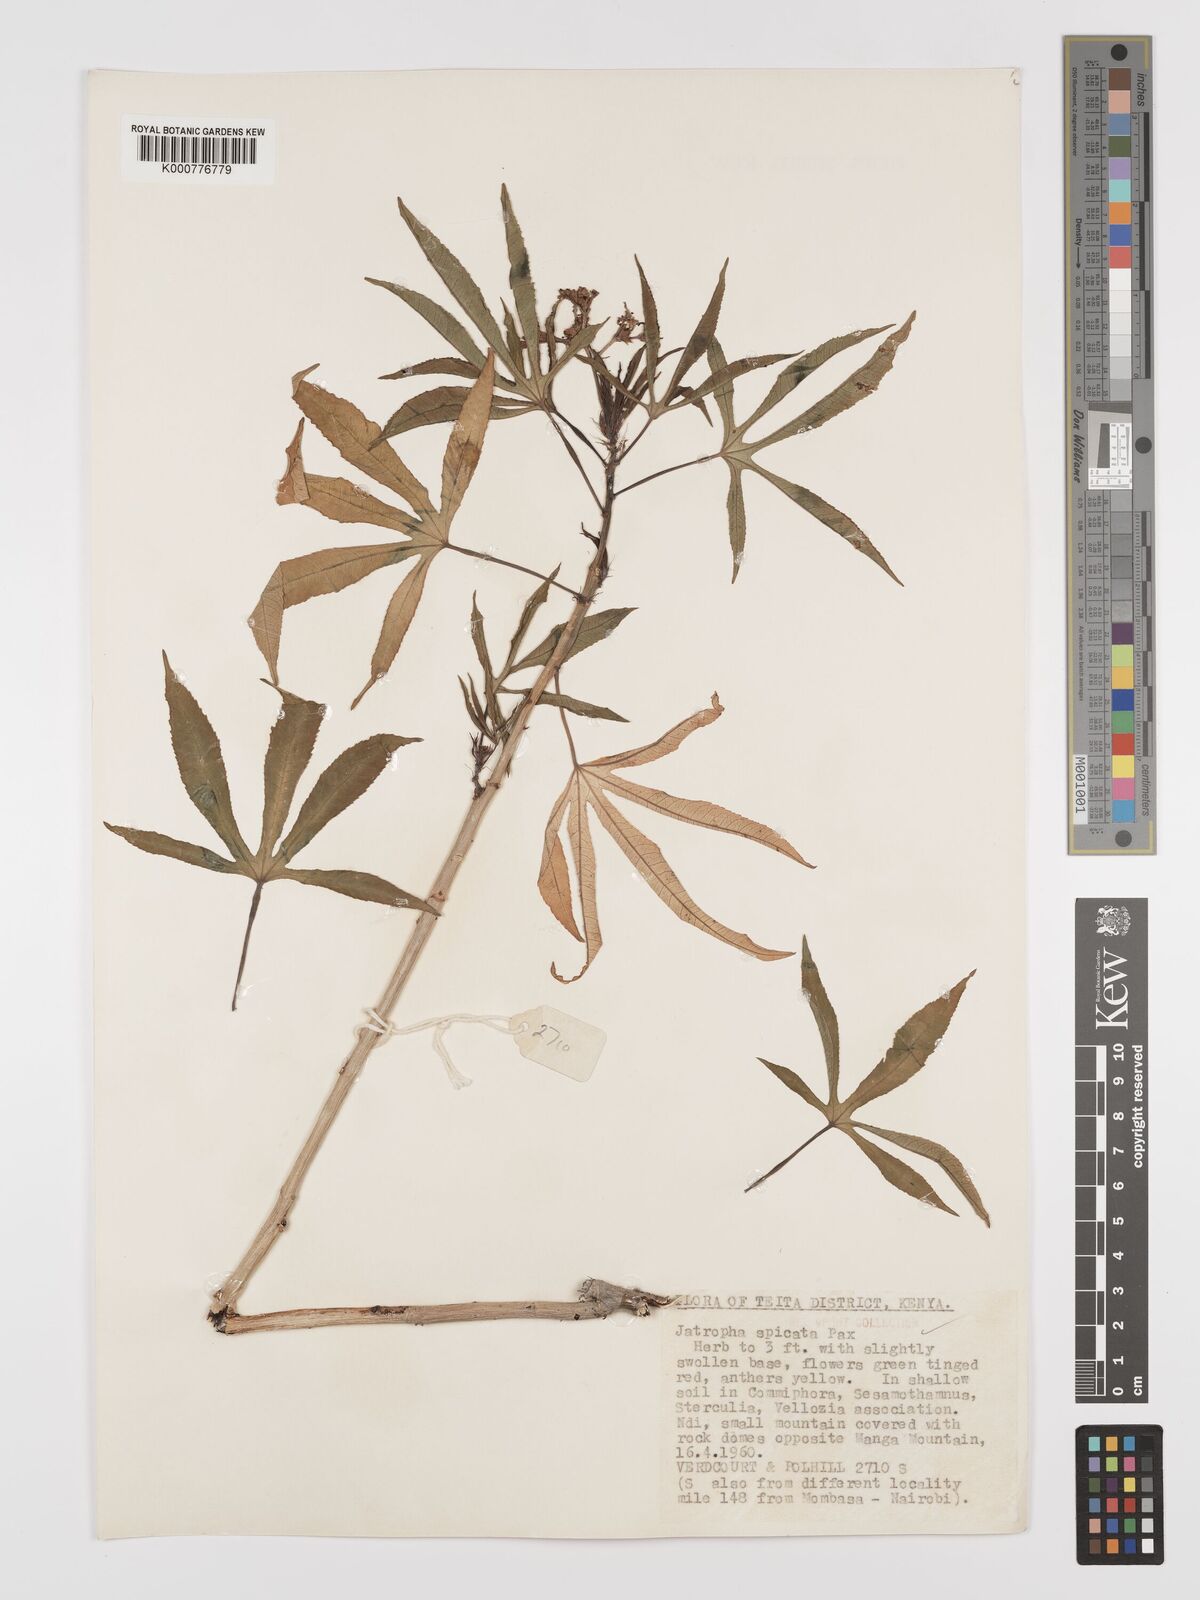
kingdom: Plantae
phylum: Tracheophyta
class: Magnoliopsida
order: Malpighiales
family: Euphorbiaceae
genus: Jatropha
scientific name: Jatropha spicata
